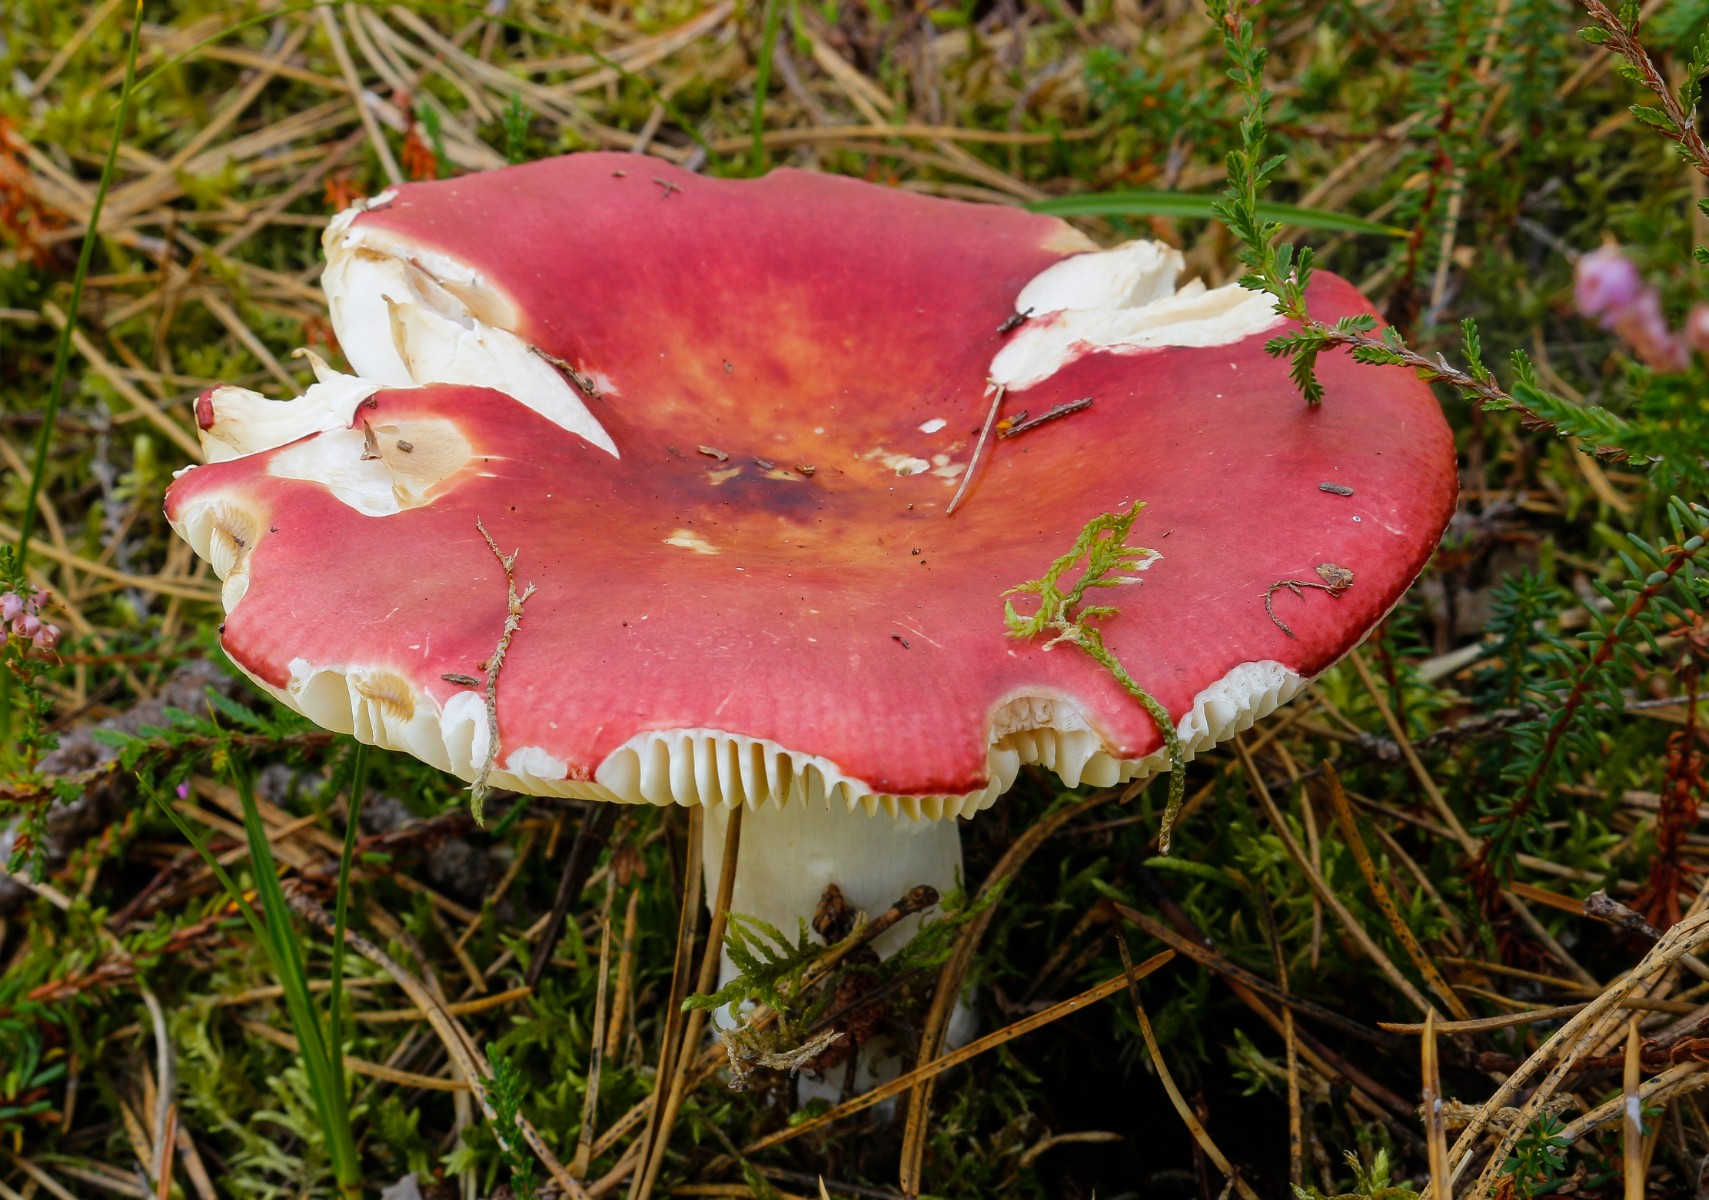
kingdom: Fungi
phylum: Basidiomycota
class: Agaricomycetes
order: Russulales
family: Russulaceae
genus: Russula
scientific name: Russula paludosa
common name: prægtig skørhat
